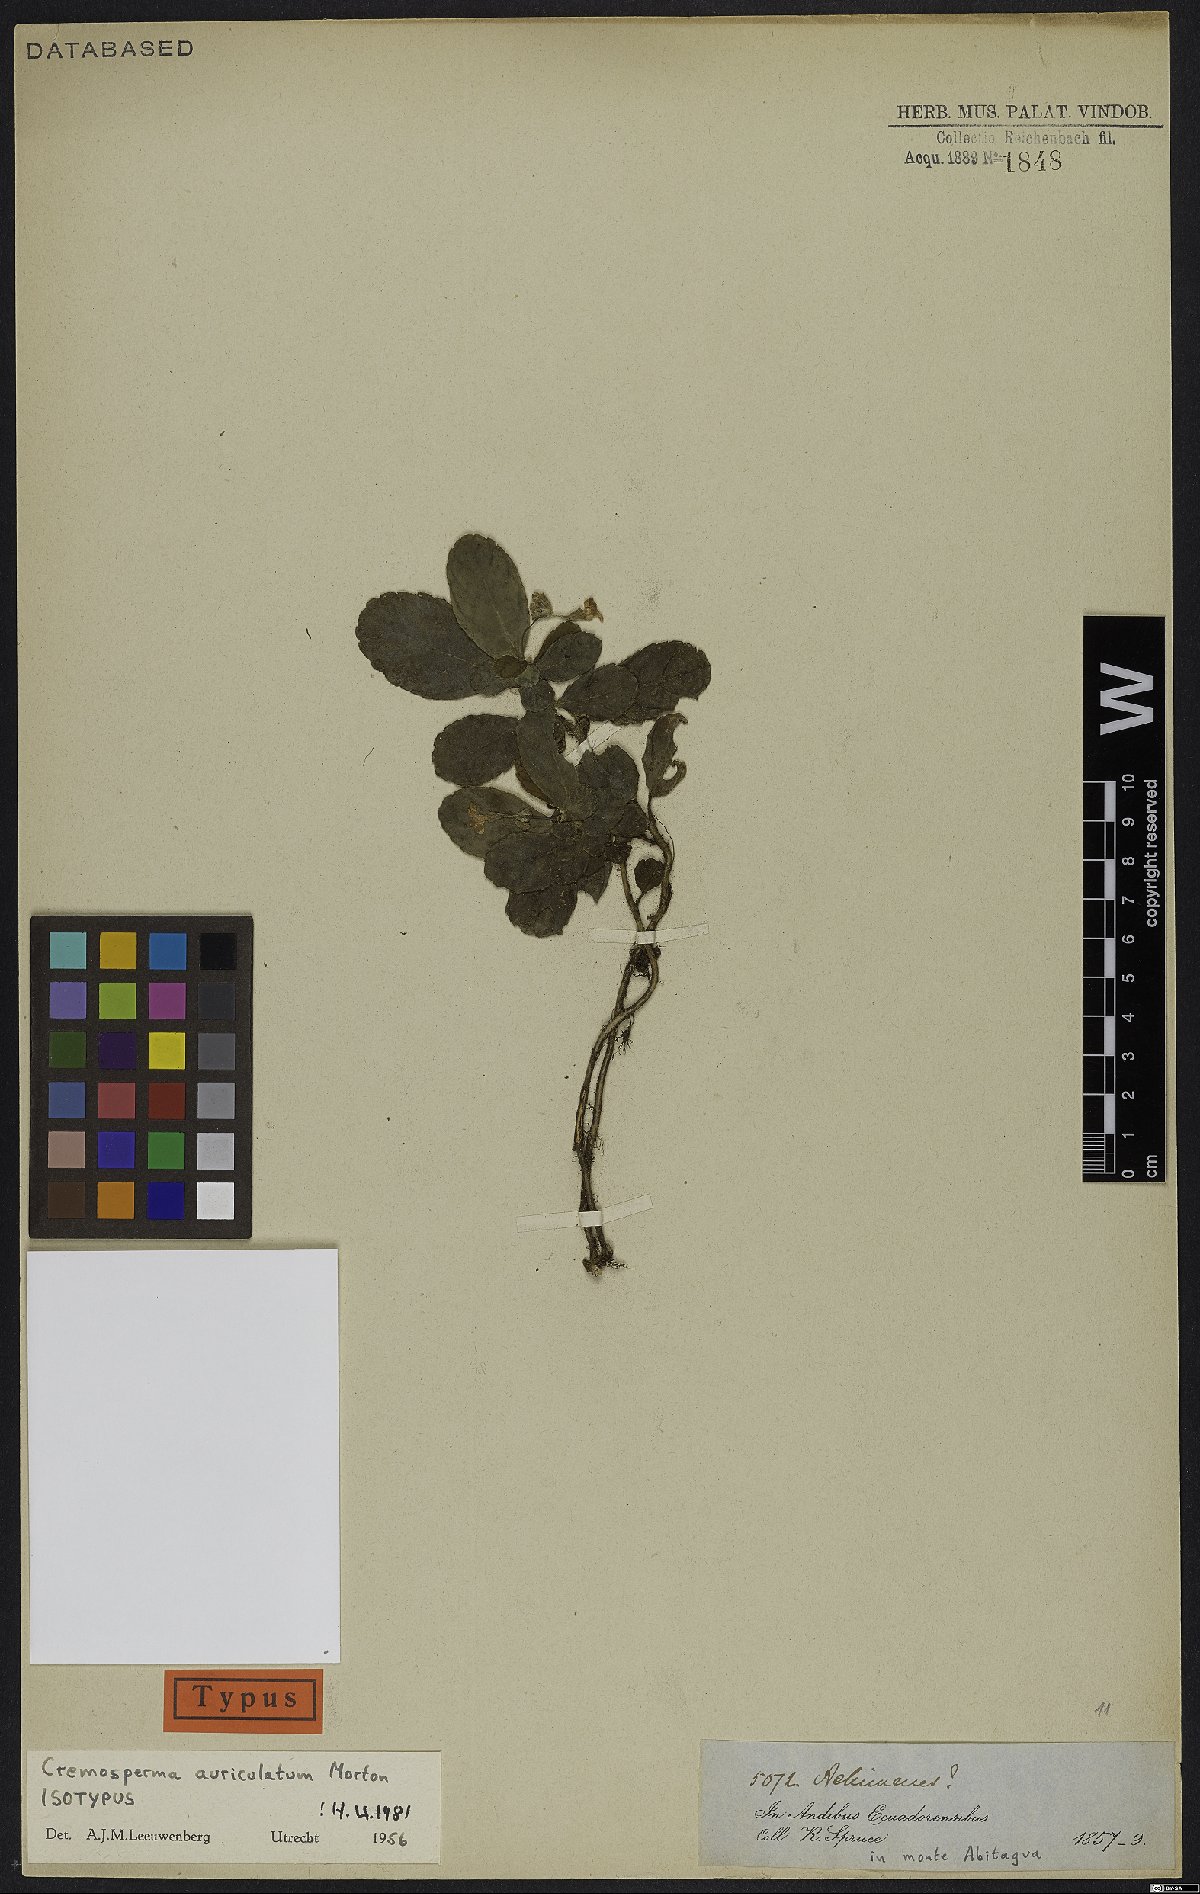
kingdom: Plantae
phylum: Tracheophyta
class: Magnoliopsida
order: Lamiales
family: Gesneriaceae
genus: Cremosperma
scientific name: Cremosperma auriculatum
